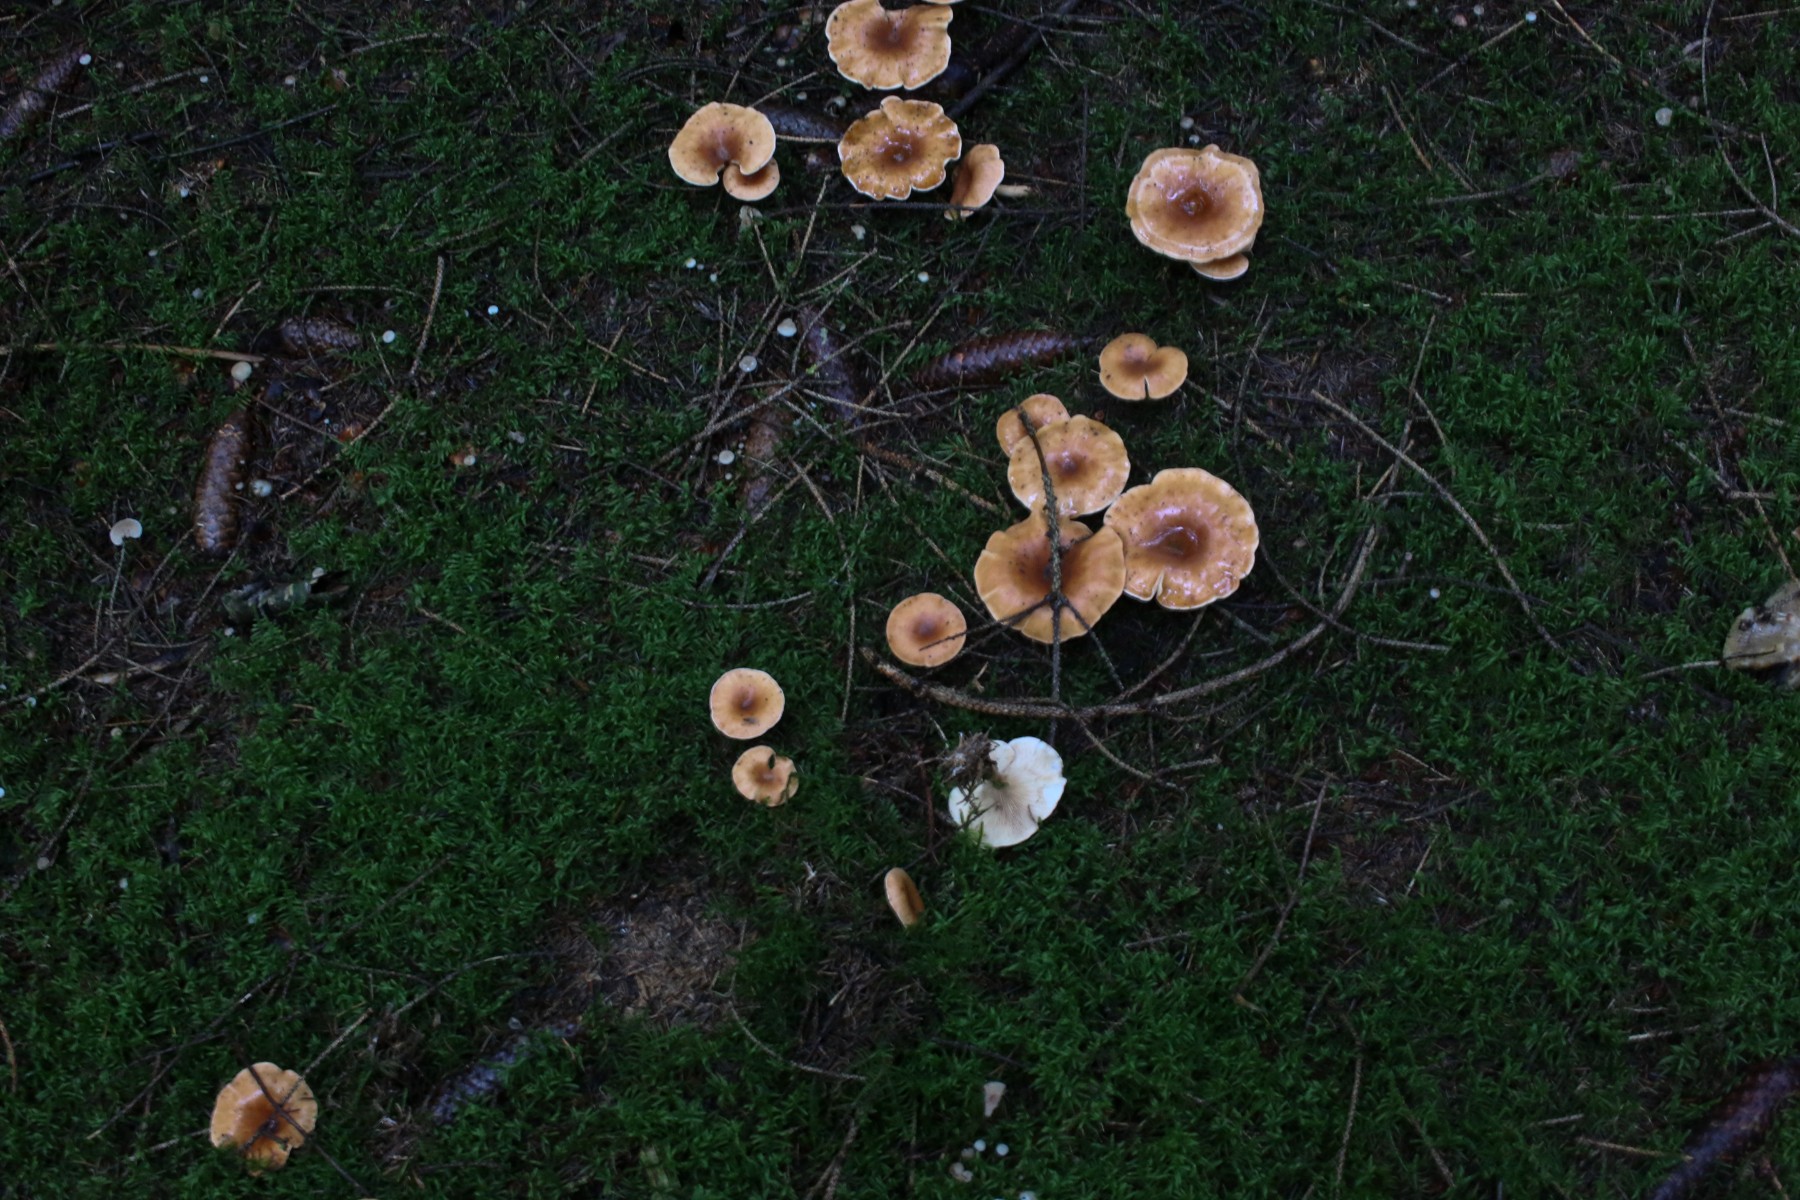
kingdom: Fungi
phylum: Basidiomycota
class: Agaricomycetes
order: Agaricales
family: Tricholomataceae
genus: Paralepista
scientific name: Paralepista flaccida
